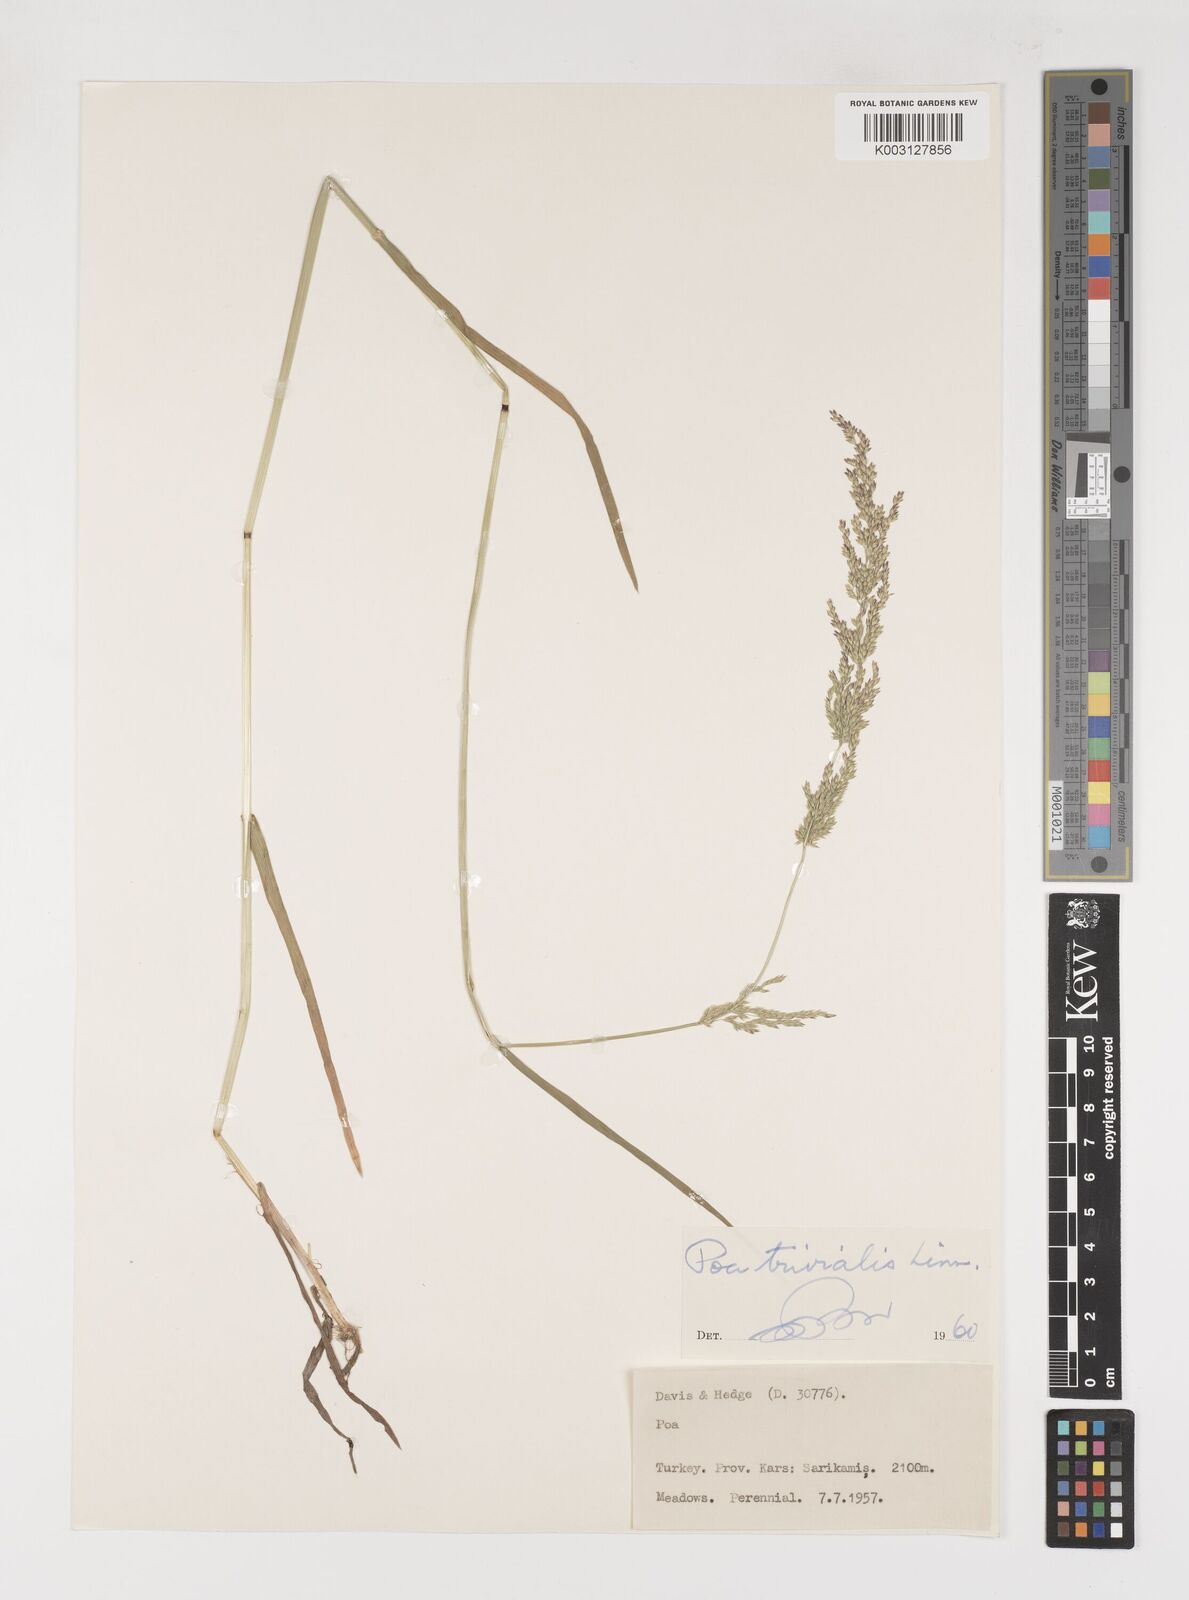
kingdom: Plantae
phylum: Tracheophyta
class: Liliopsida
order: Poales
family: Poaceae
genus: Poa
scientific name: Poa trivialis
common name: Rough bluegrass
